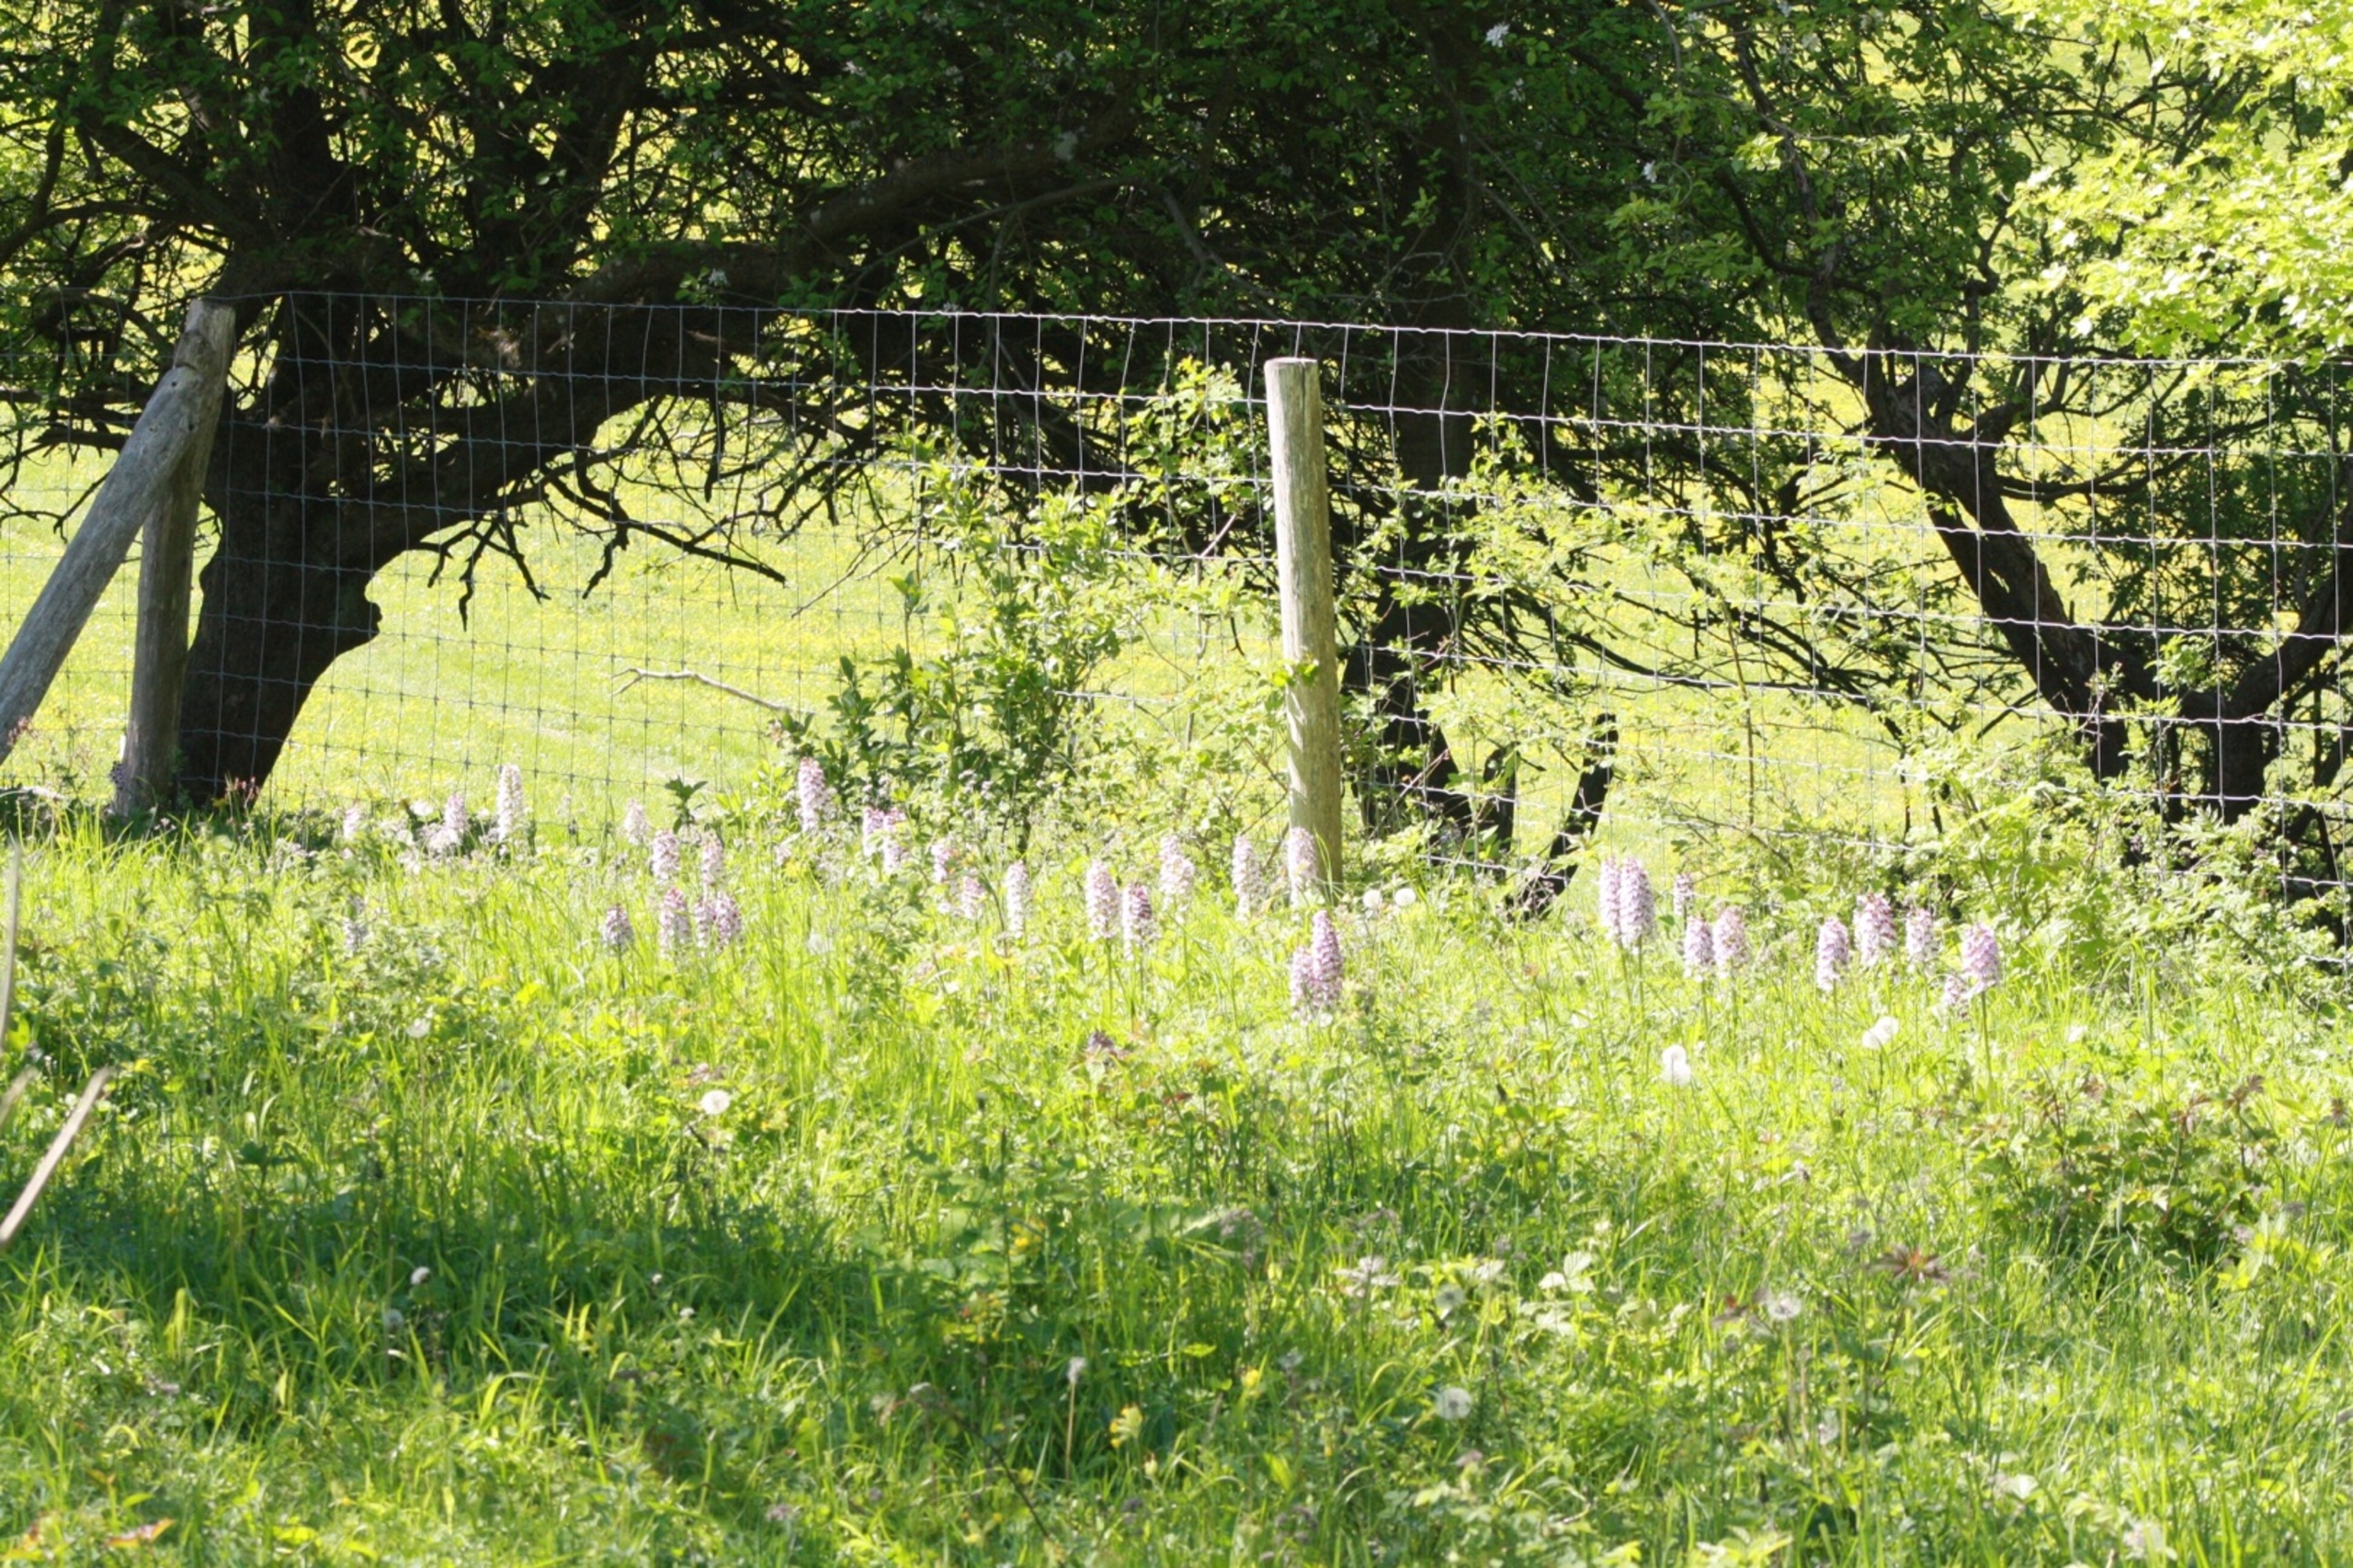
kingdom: Plantae
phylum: Tracheophyta
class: Liliopsida
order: Asparagales
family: Orchidaceae
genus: Orchis
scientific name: Orchis purpurea
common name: Stor gøgeurt
